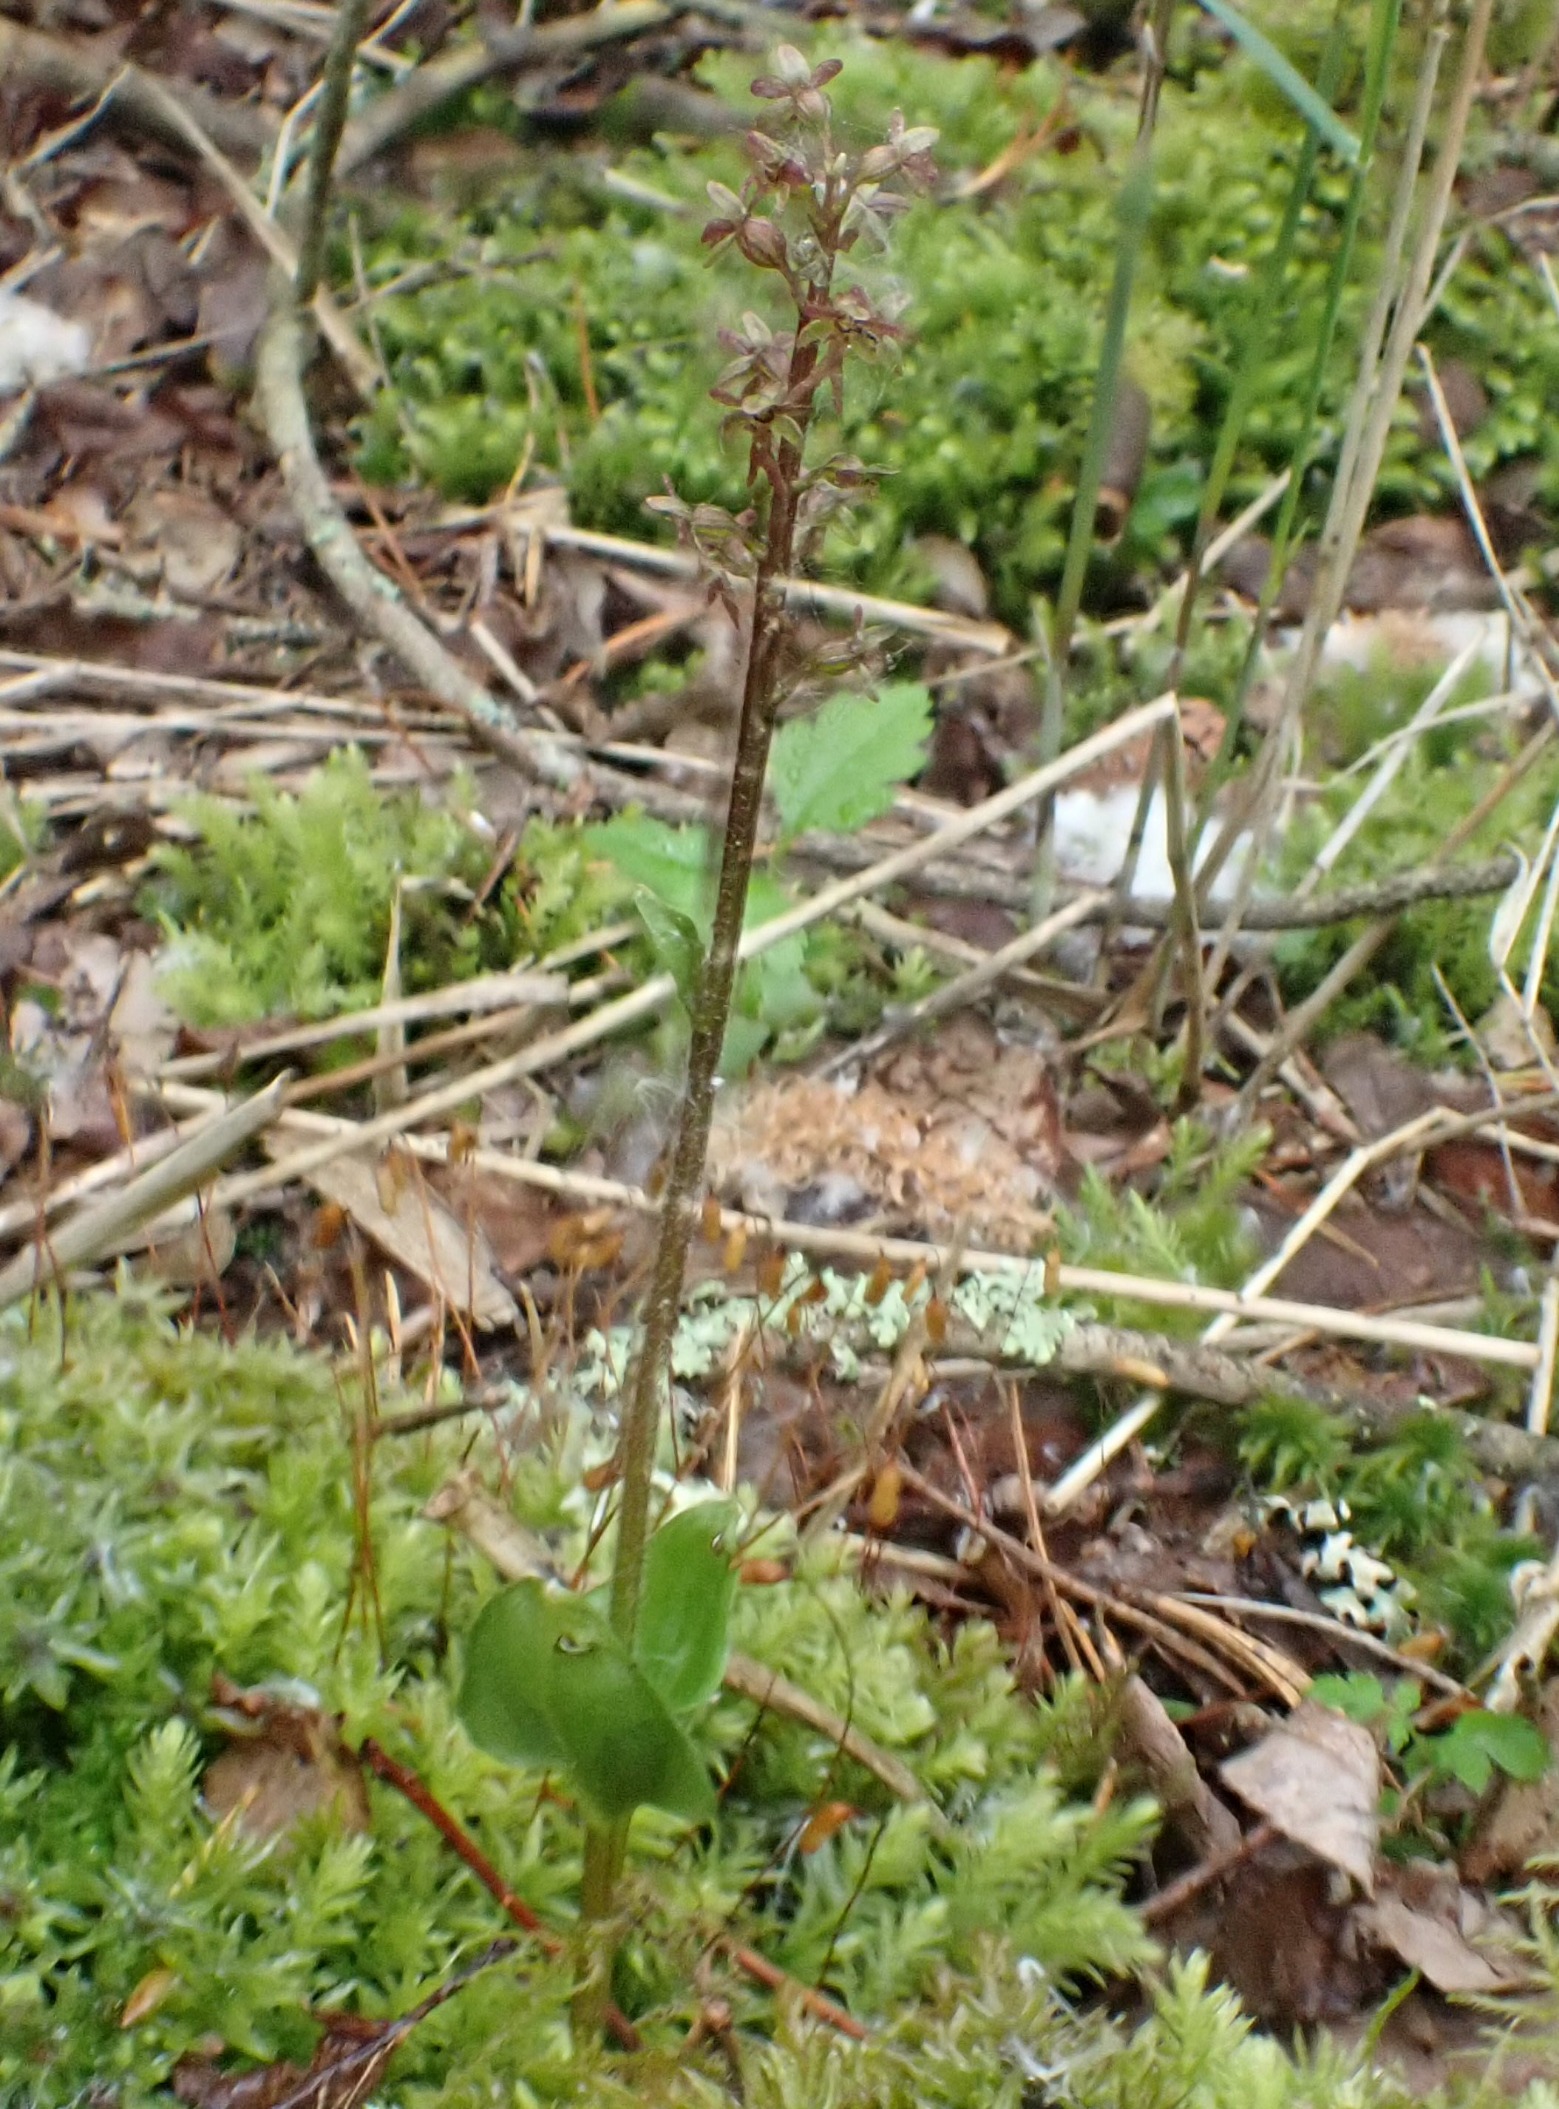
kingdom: Plantae
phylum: Tracheophyta
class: Liliopsida
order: Asparagales
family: Orchidaceae
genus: Neottia
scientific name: Neottia cordata
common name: Hjertebladet fliglæbe
